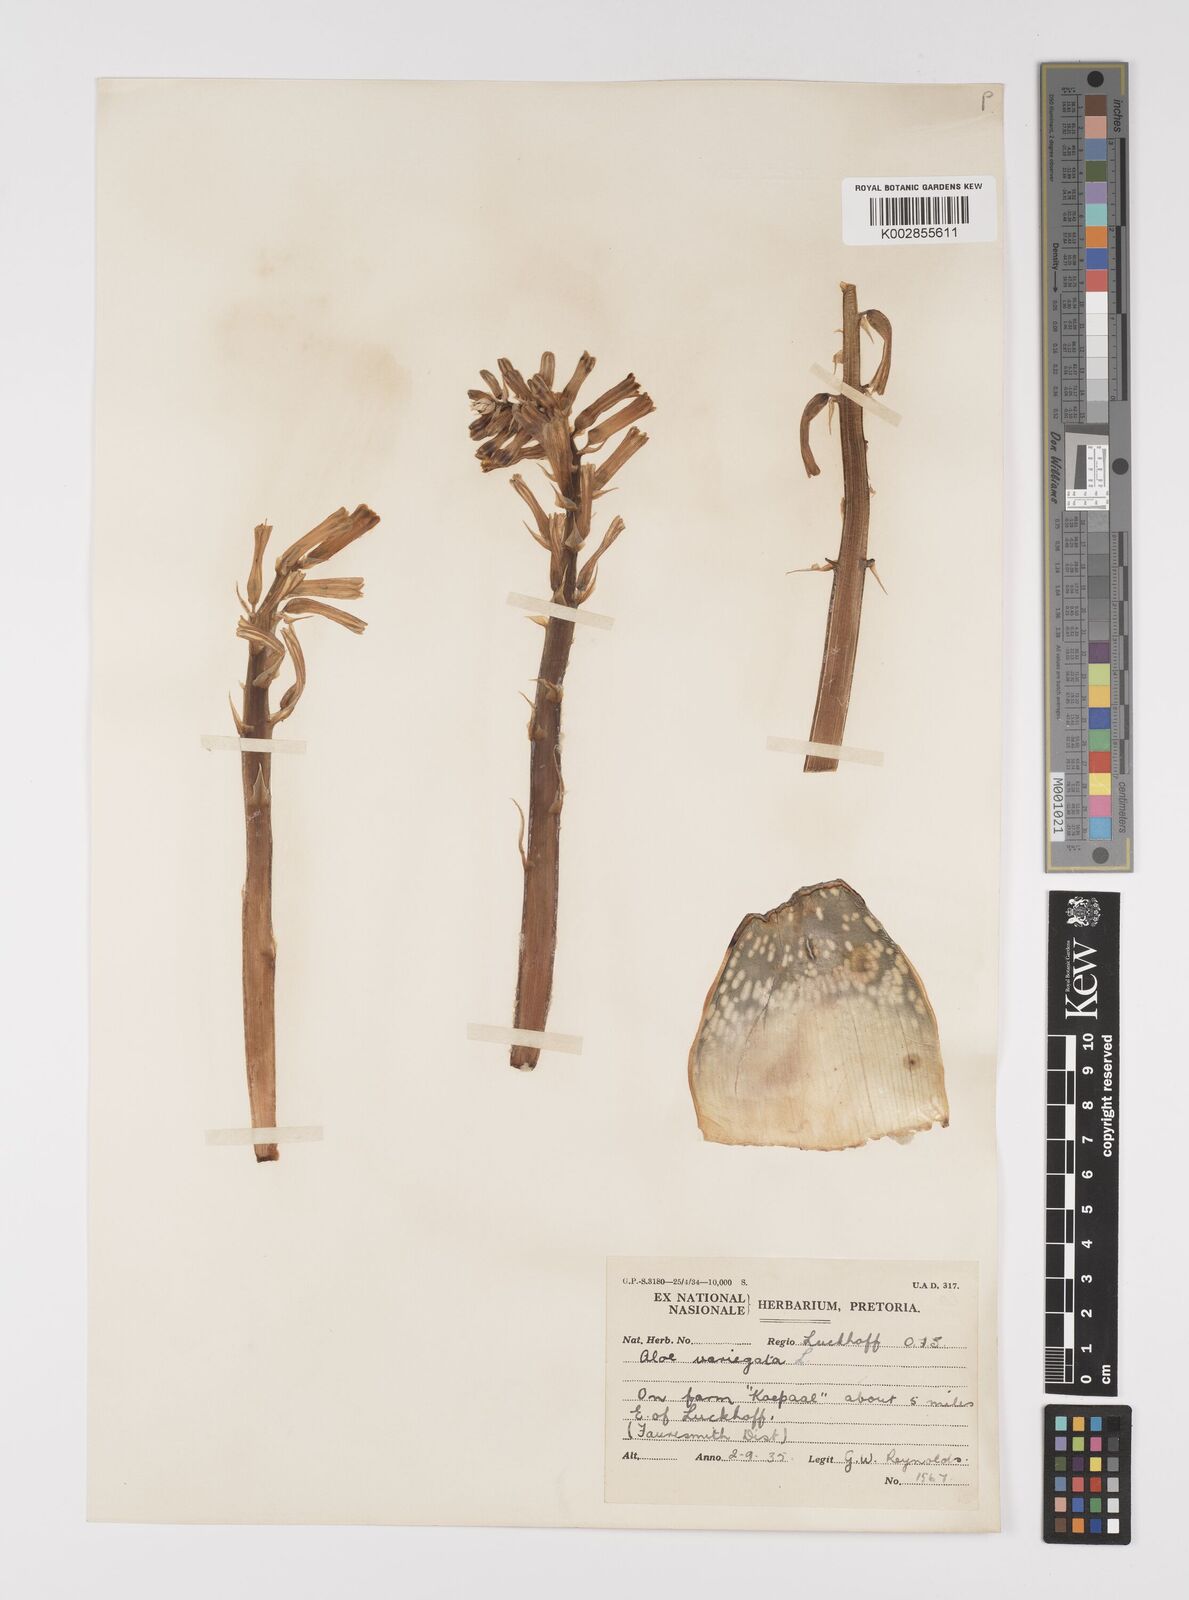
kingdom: Plantae
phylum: Tracheophyta
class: Liliopsida
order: Asparagales
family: Asphodelaceae
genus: Gonialoe
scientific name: Gonialoe variegata
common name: Aloe variegata
